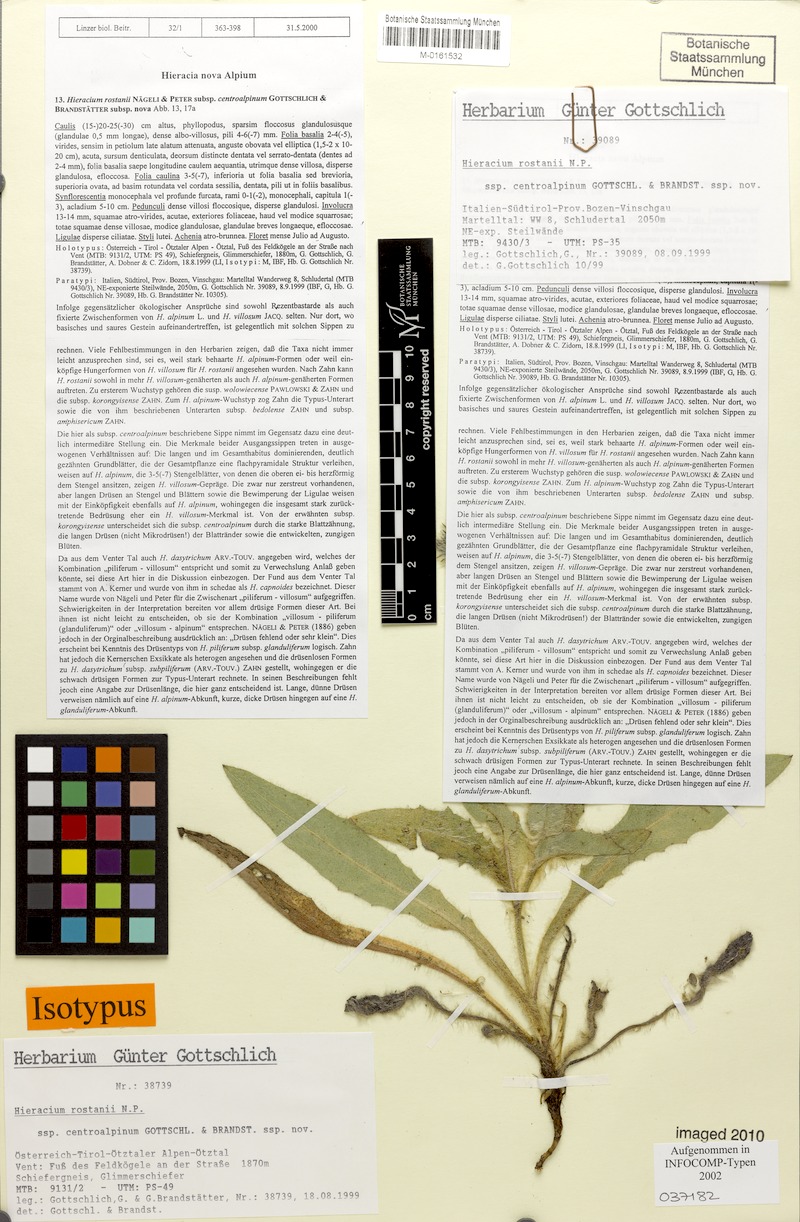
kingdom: Plantae
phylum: Tracheophyta
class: Magnoliopsida
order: Asterales
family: Asteraceae
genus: Hieracium
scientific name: Hieracium rostanii
